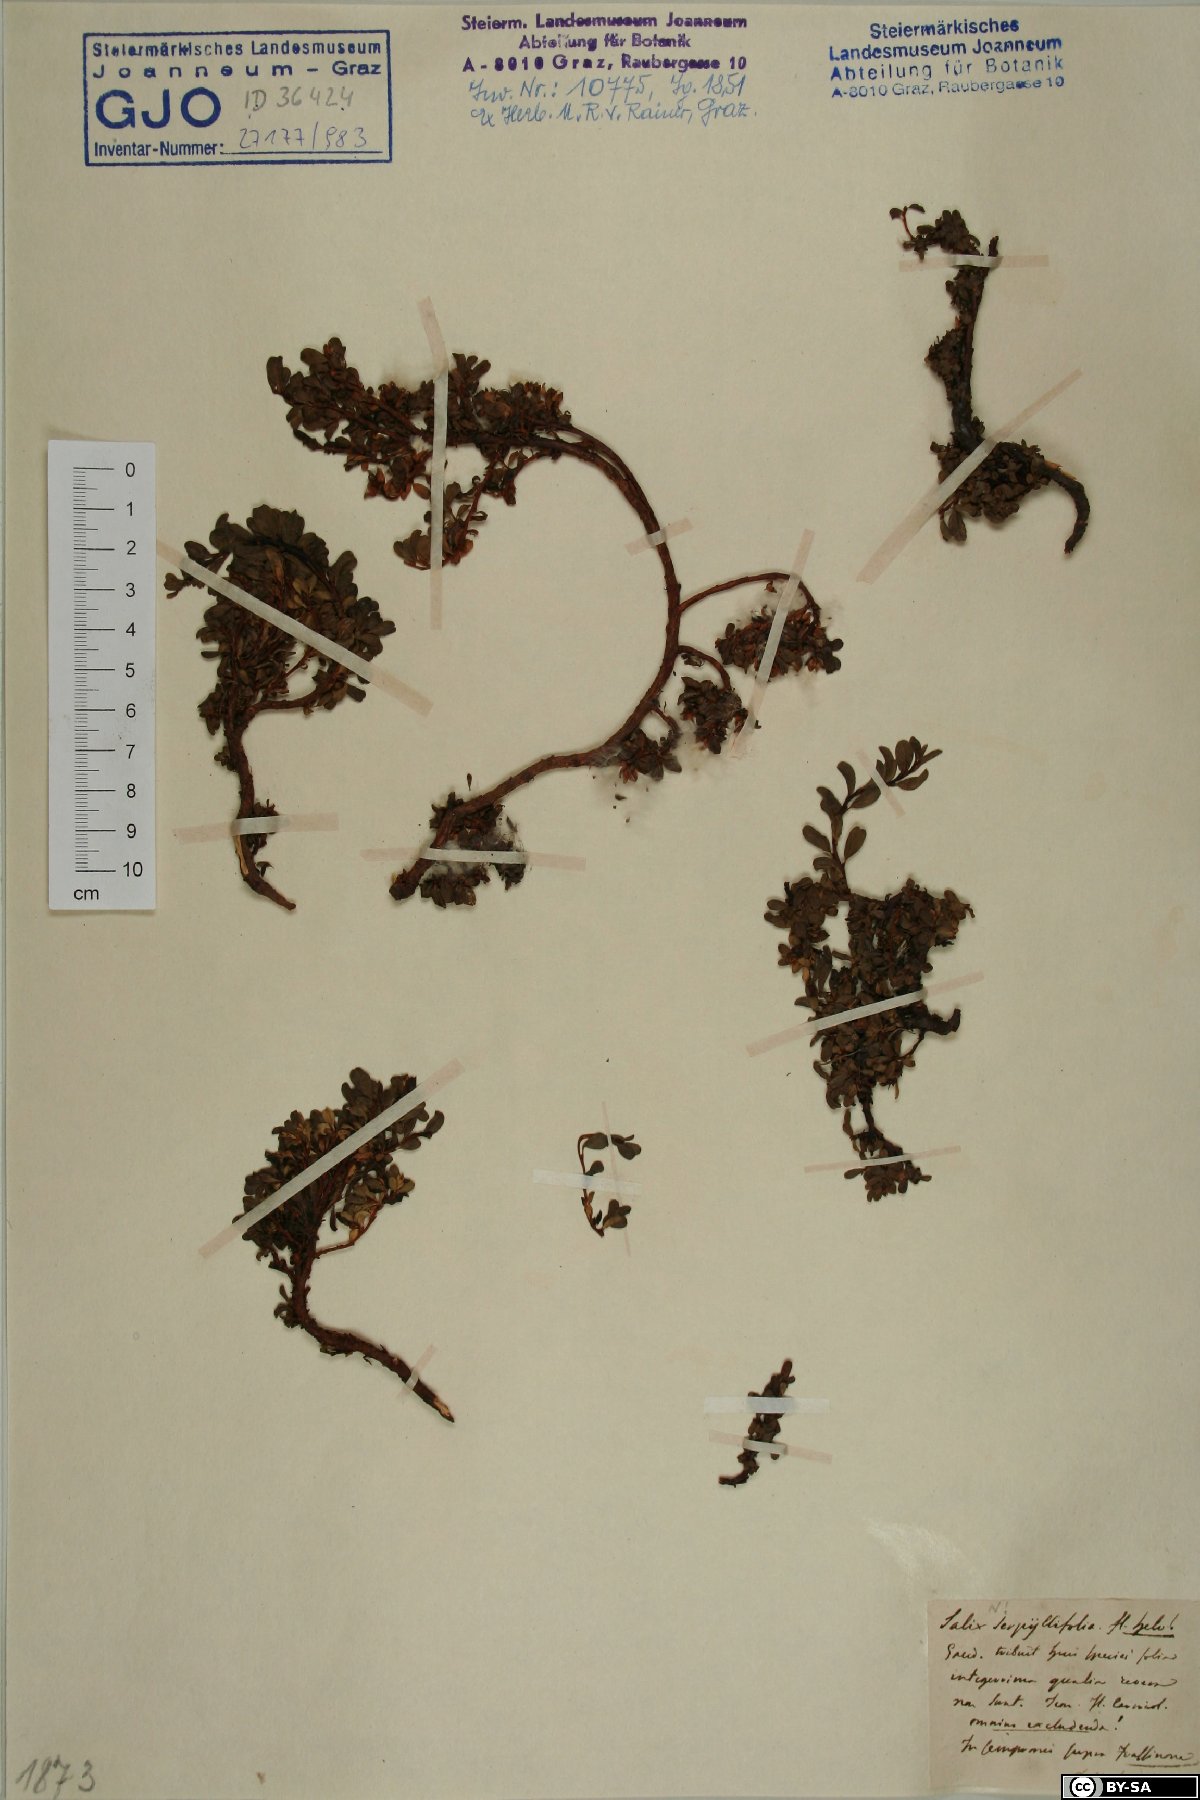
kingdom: Plantae
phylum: Tracheophyta
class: Magnoliopsida
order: Malpighiales
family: Salicaceae
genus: Salix
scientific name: Salix serpillifolia
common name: Thyme-leaf willow
